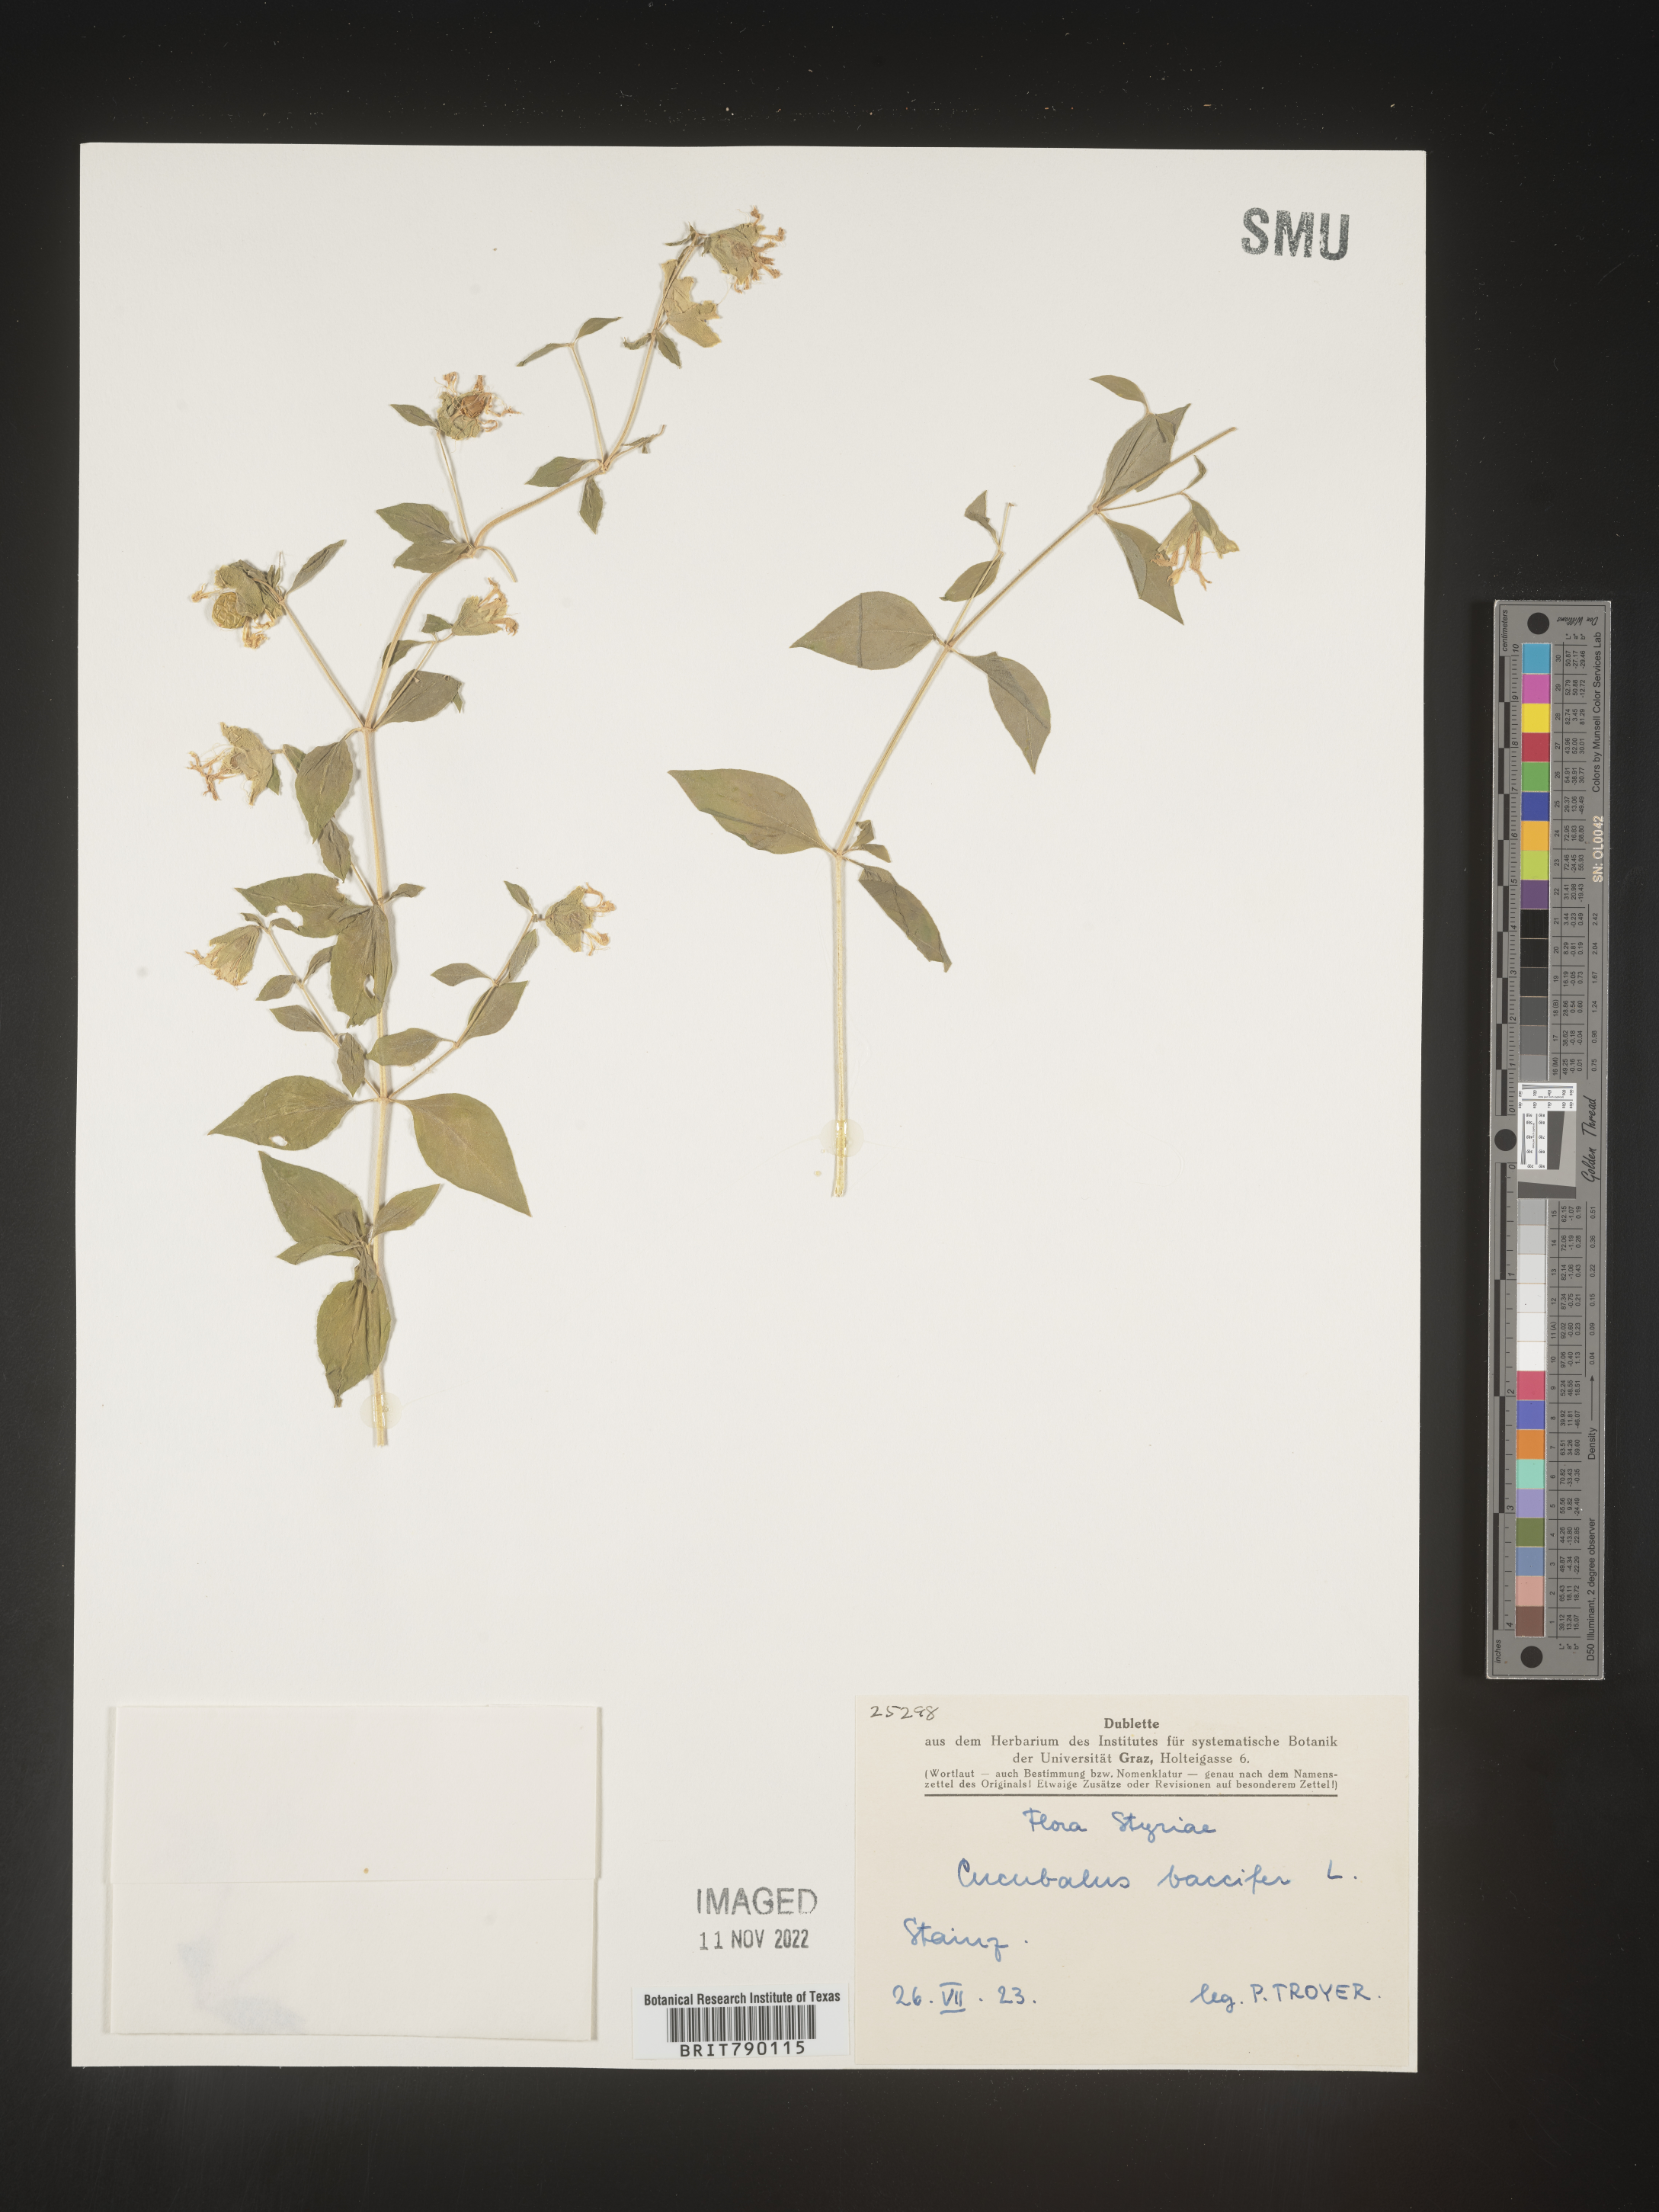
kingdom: Animalia
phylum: Cnidaria
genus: Cucubalus
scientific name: Cucubalus
